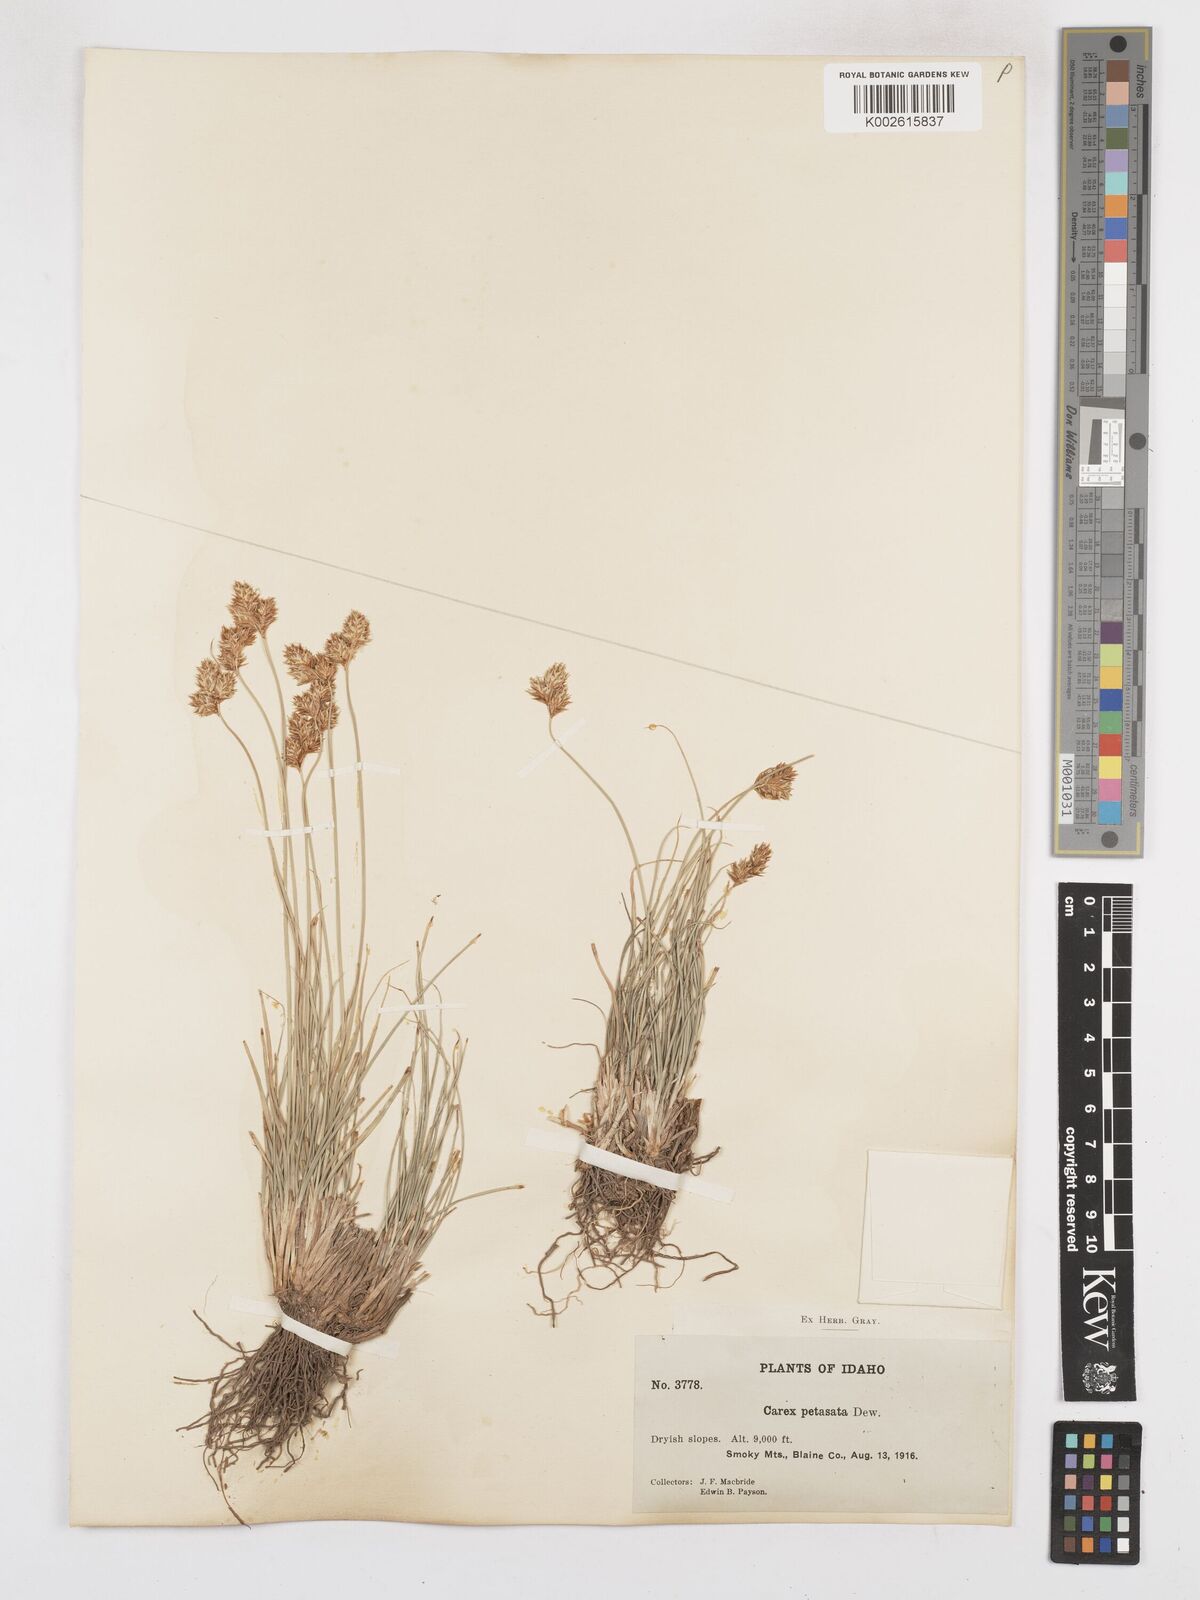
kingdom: Plantae
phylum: Tracheophyta
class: Liliopsida
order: Poales
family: Cyperaceae
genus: Carex
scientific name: Carex petasata
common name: Liddon's sedge
